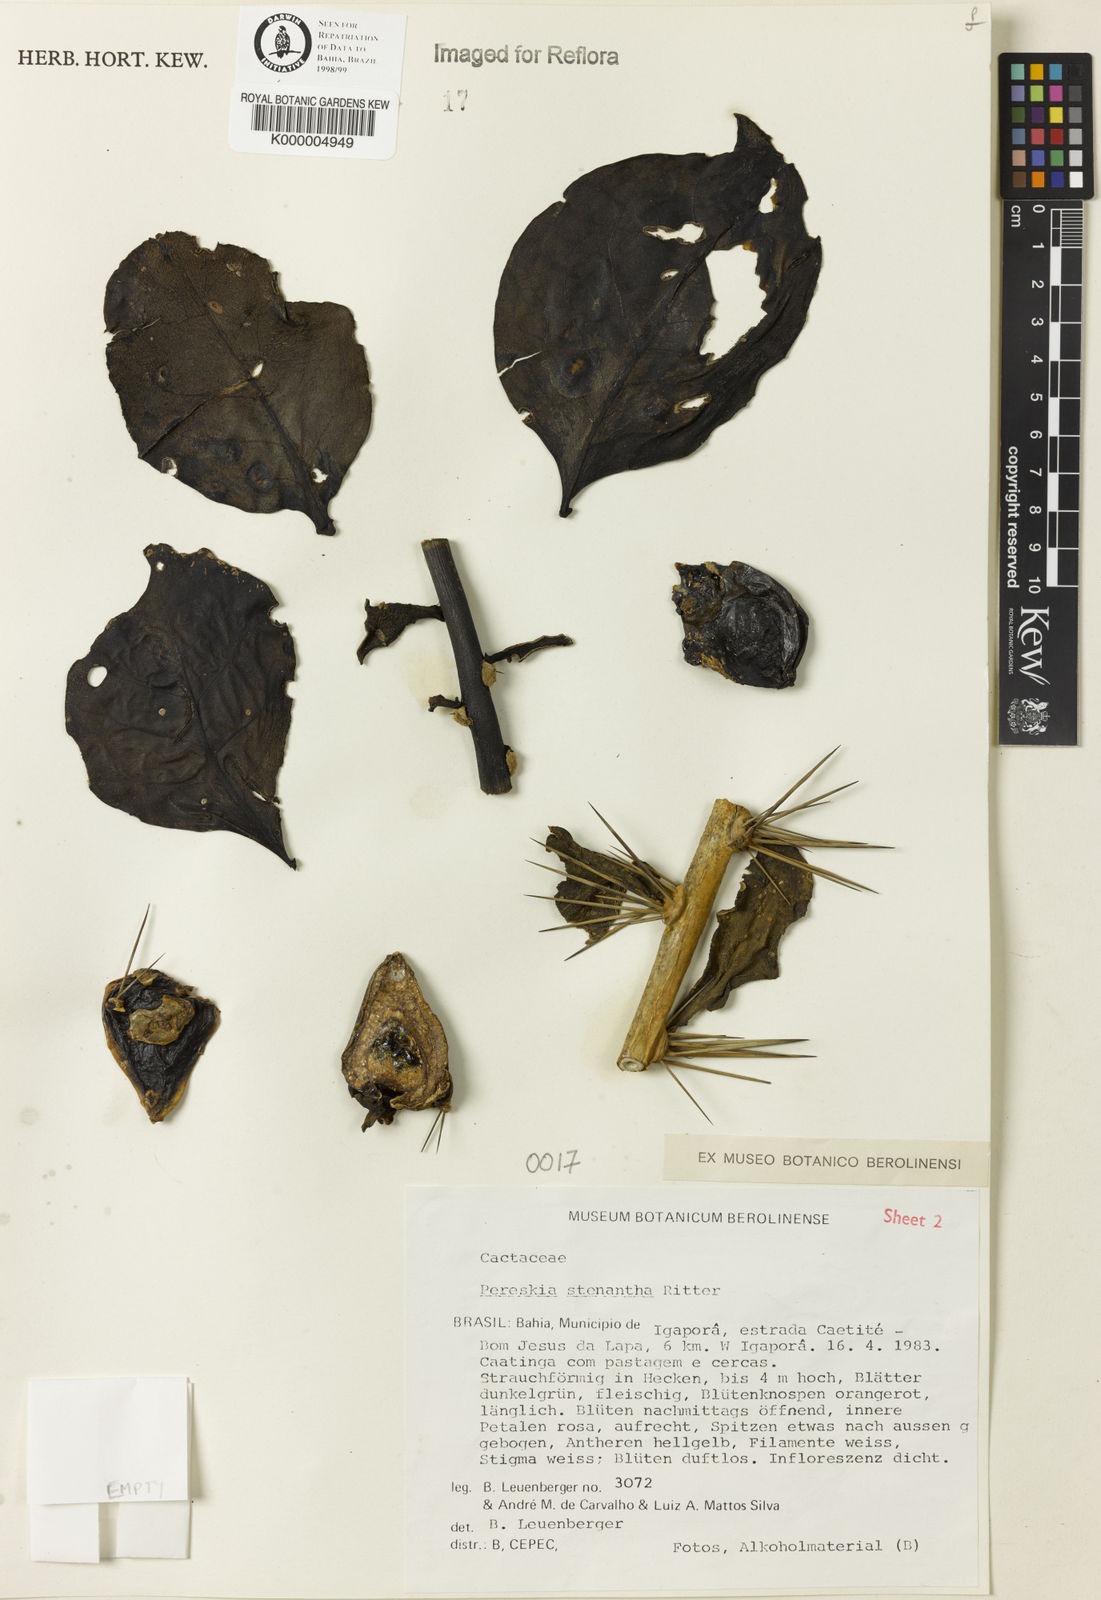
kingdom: Plantae
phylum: Tracheophyta
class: Magnoliopsida
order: Caryophyllales
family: Cactaceae
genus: Pereskia
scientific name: Pereskia stenantha
